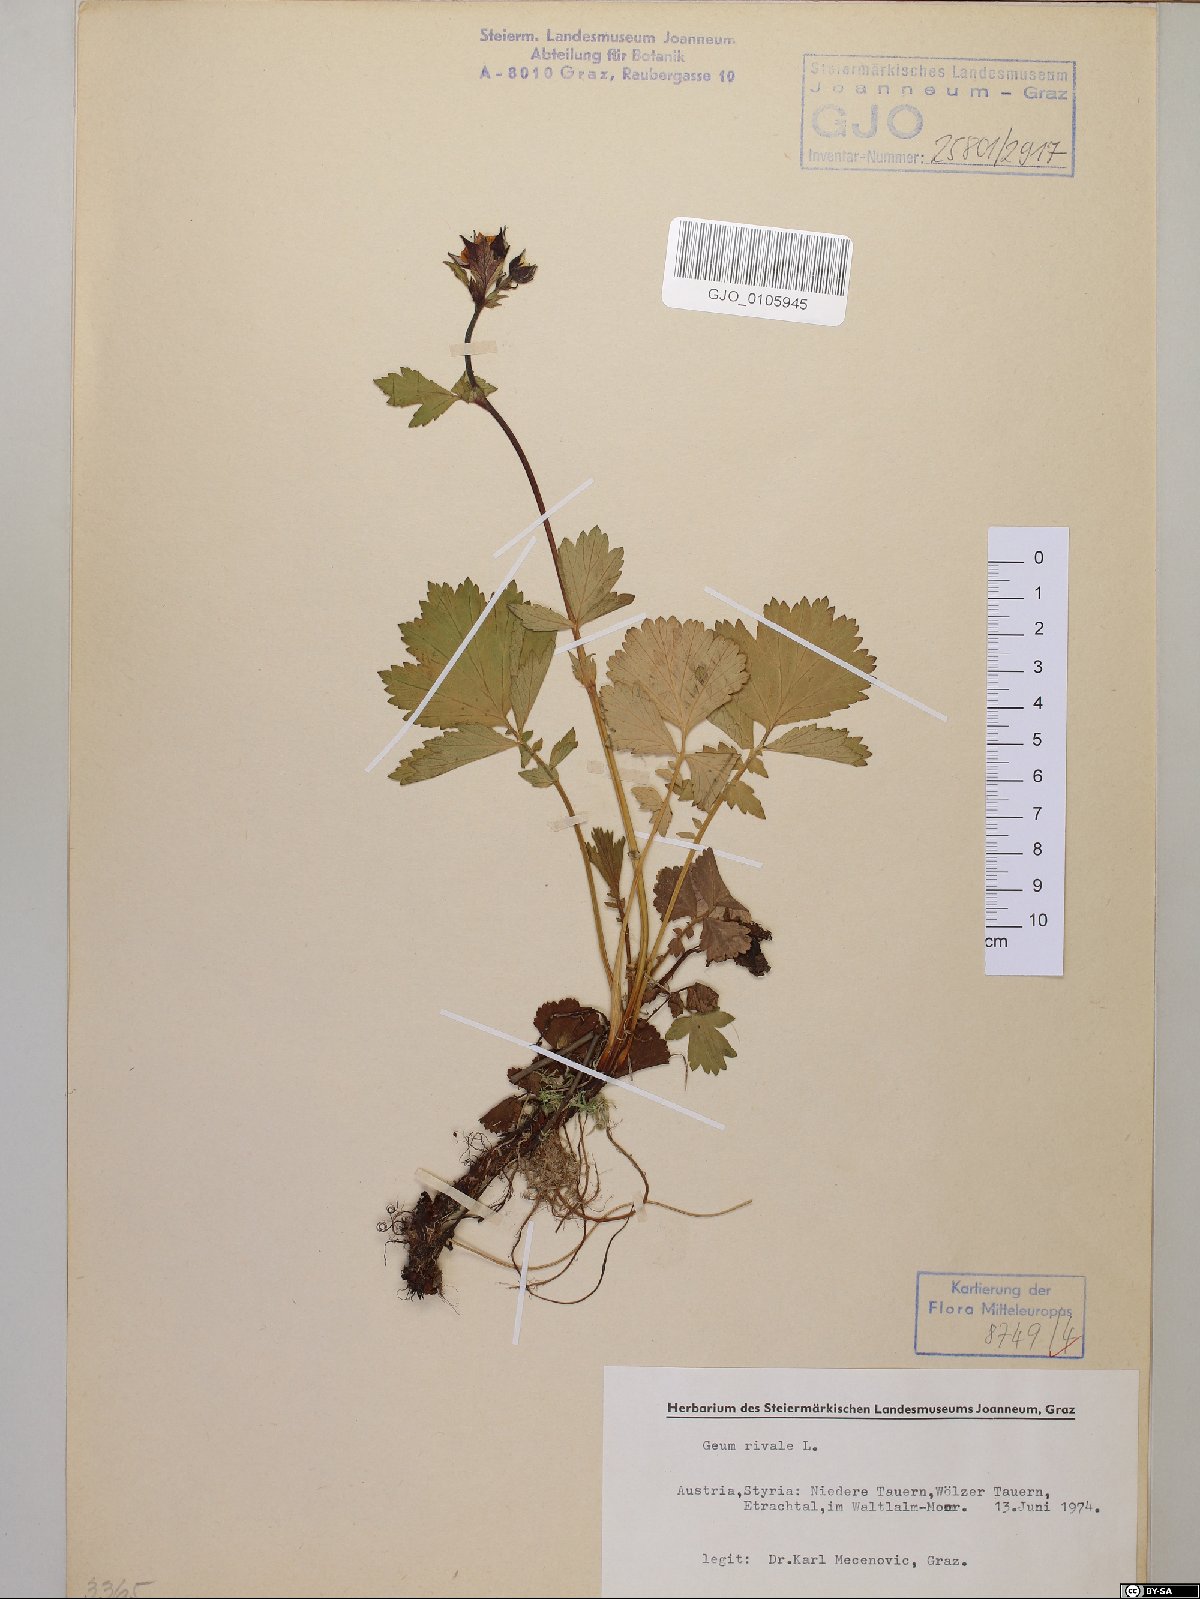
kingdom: Plantae
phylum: Tracheophyta
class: Magnoliopsida
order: Rosales
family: Rosaceae
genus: Geum
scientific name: Geum rivale
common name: Water avens
